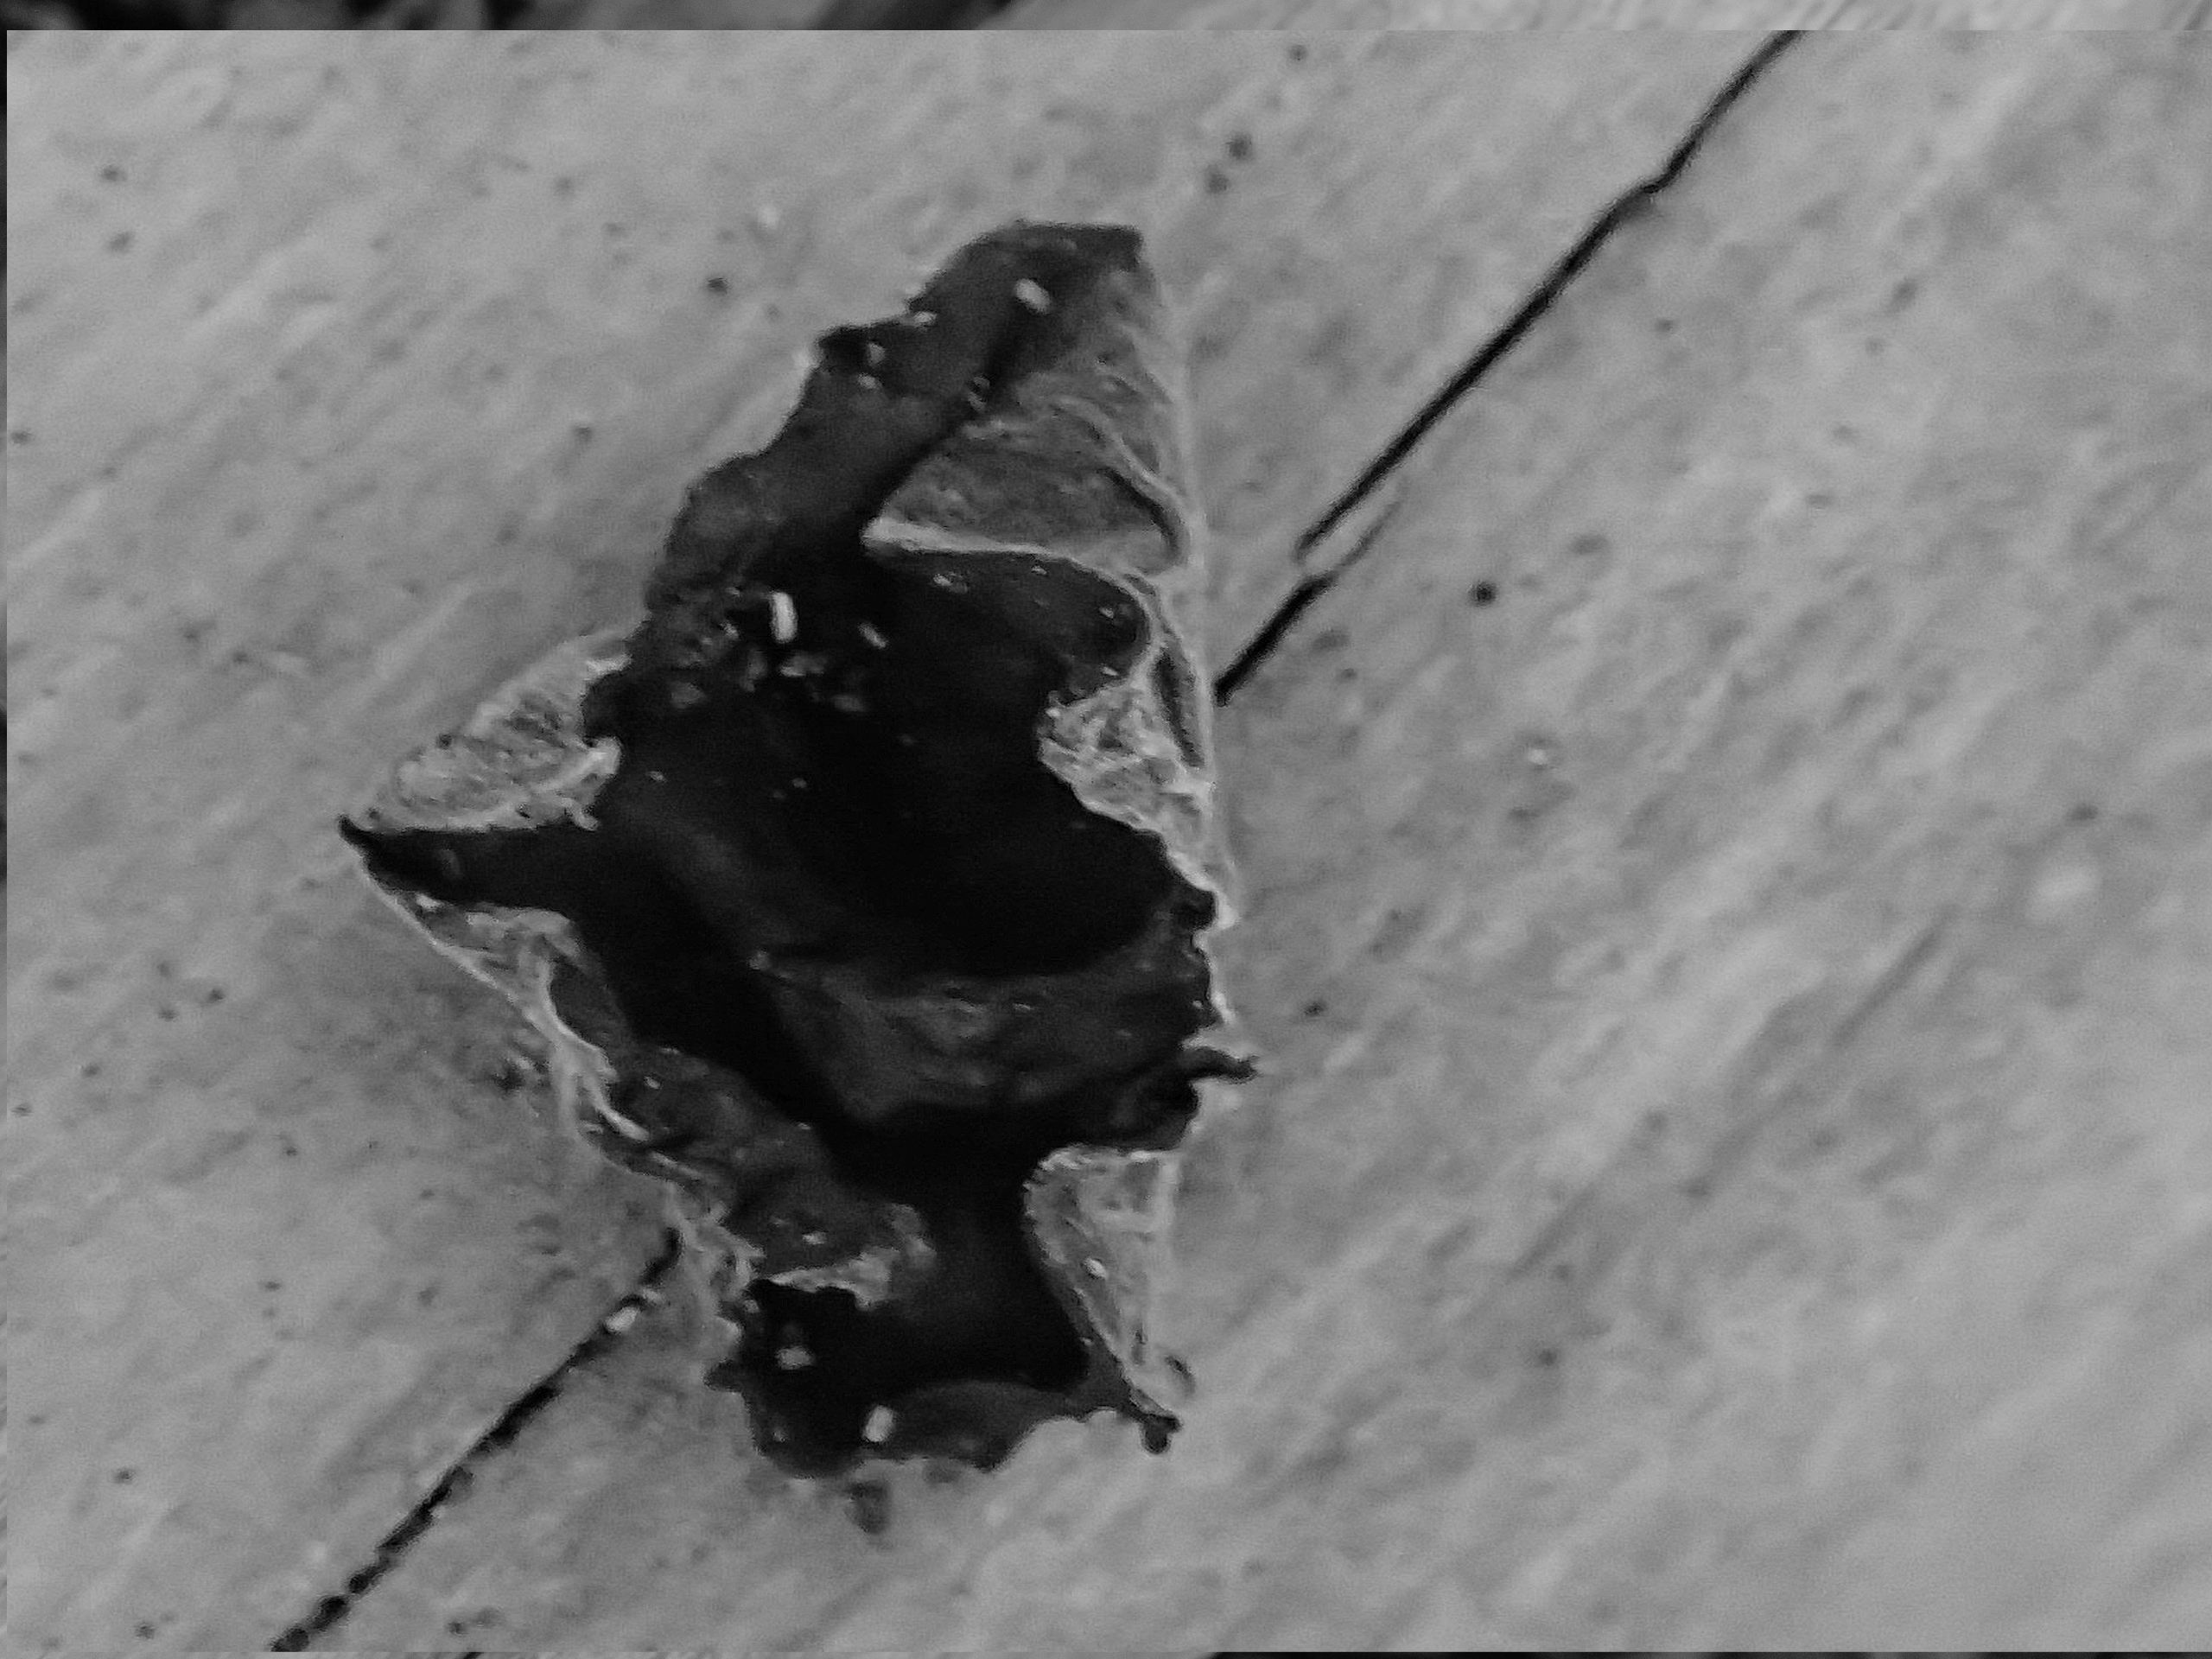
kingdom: Fungi
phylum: Basidiomycota
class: Agaricomycetes
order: Auriculariales
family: Auriculariaceae
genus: Auricularia
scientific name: Auricularia auricula-judae
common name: Almindelig judasøre
